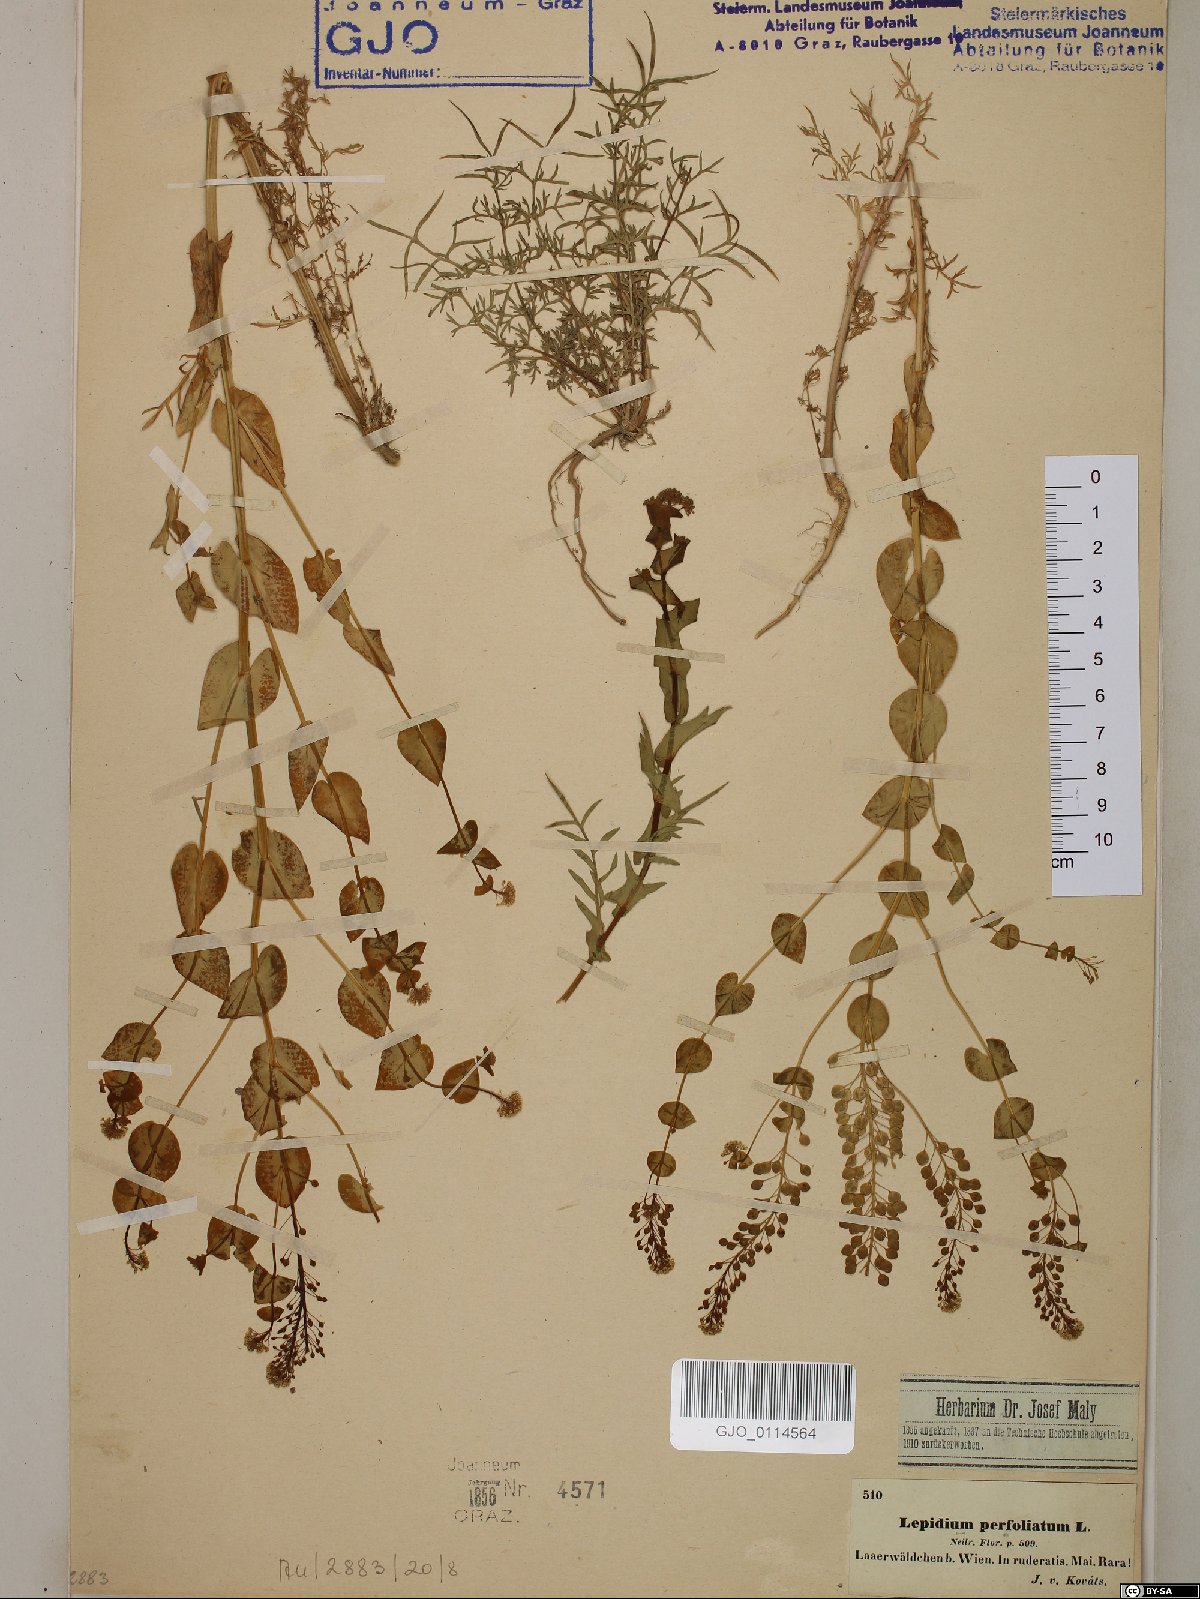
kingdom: Plantae
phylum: Tracheophyta
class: Magnoliopsida
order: Brassicales
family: Brassicaceae
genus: Lepidium
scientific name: Lepidium perfoliatum
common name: Perfoliate pepperwort
